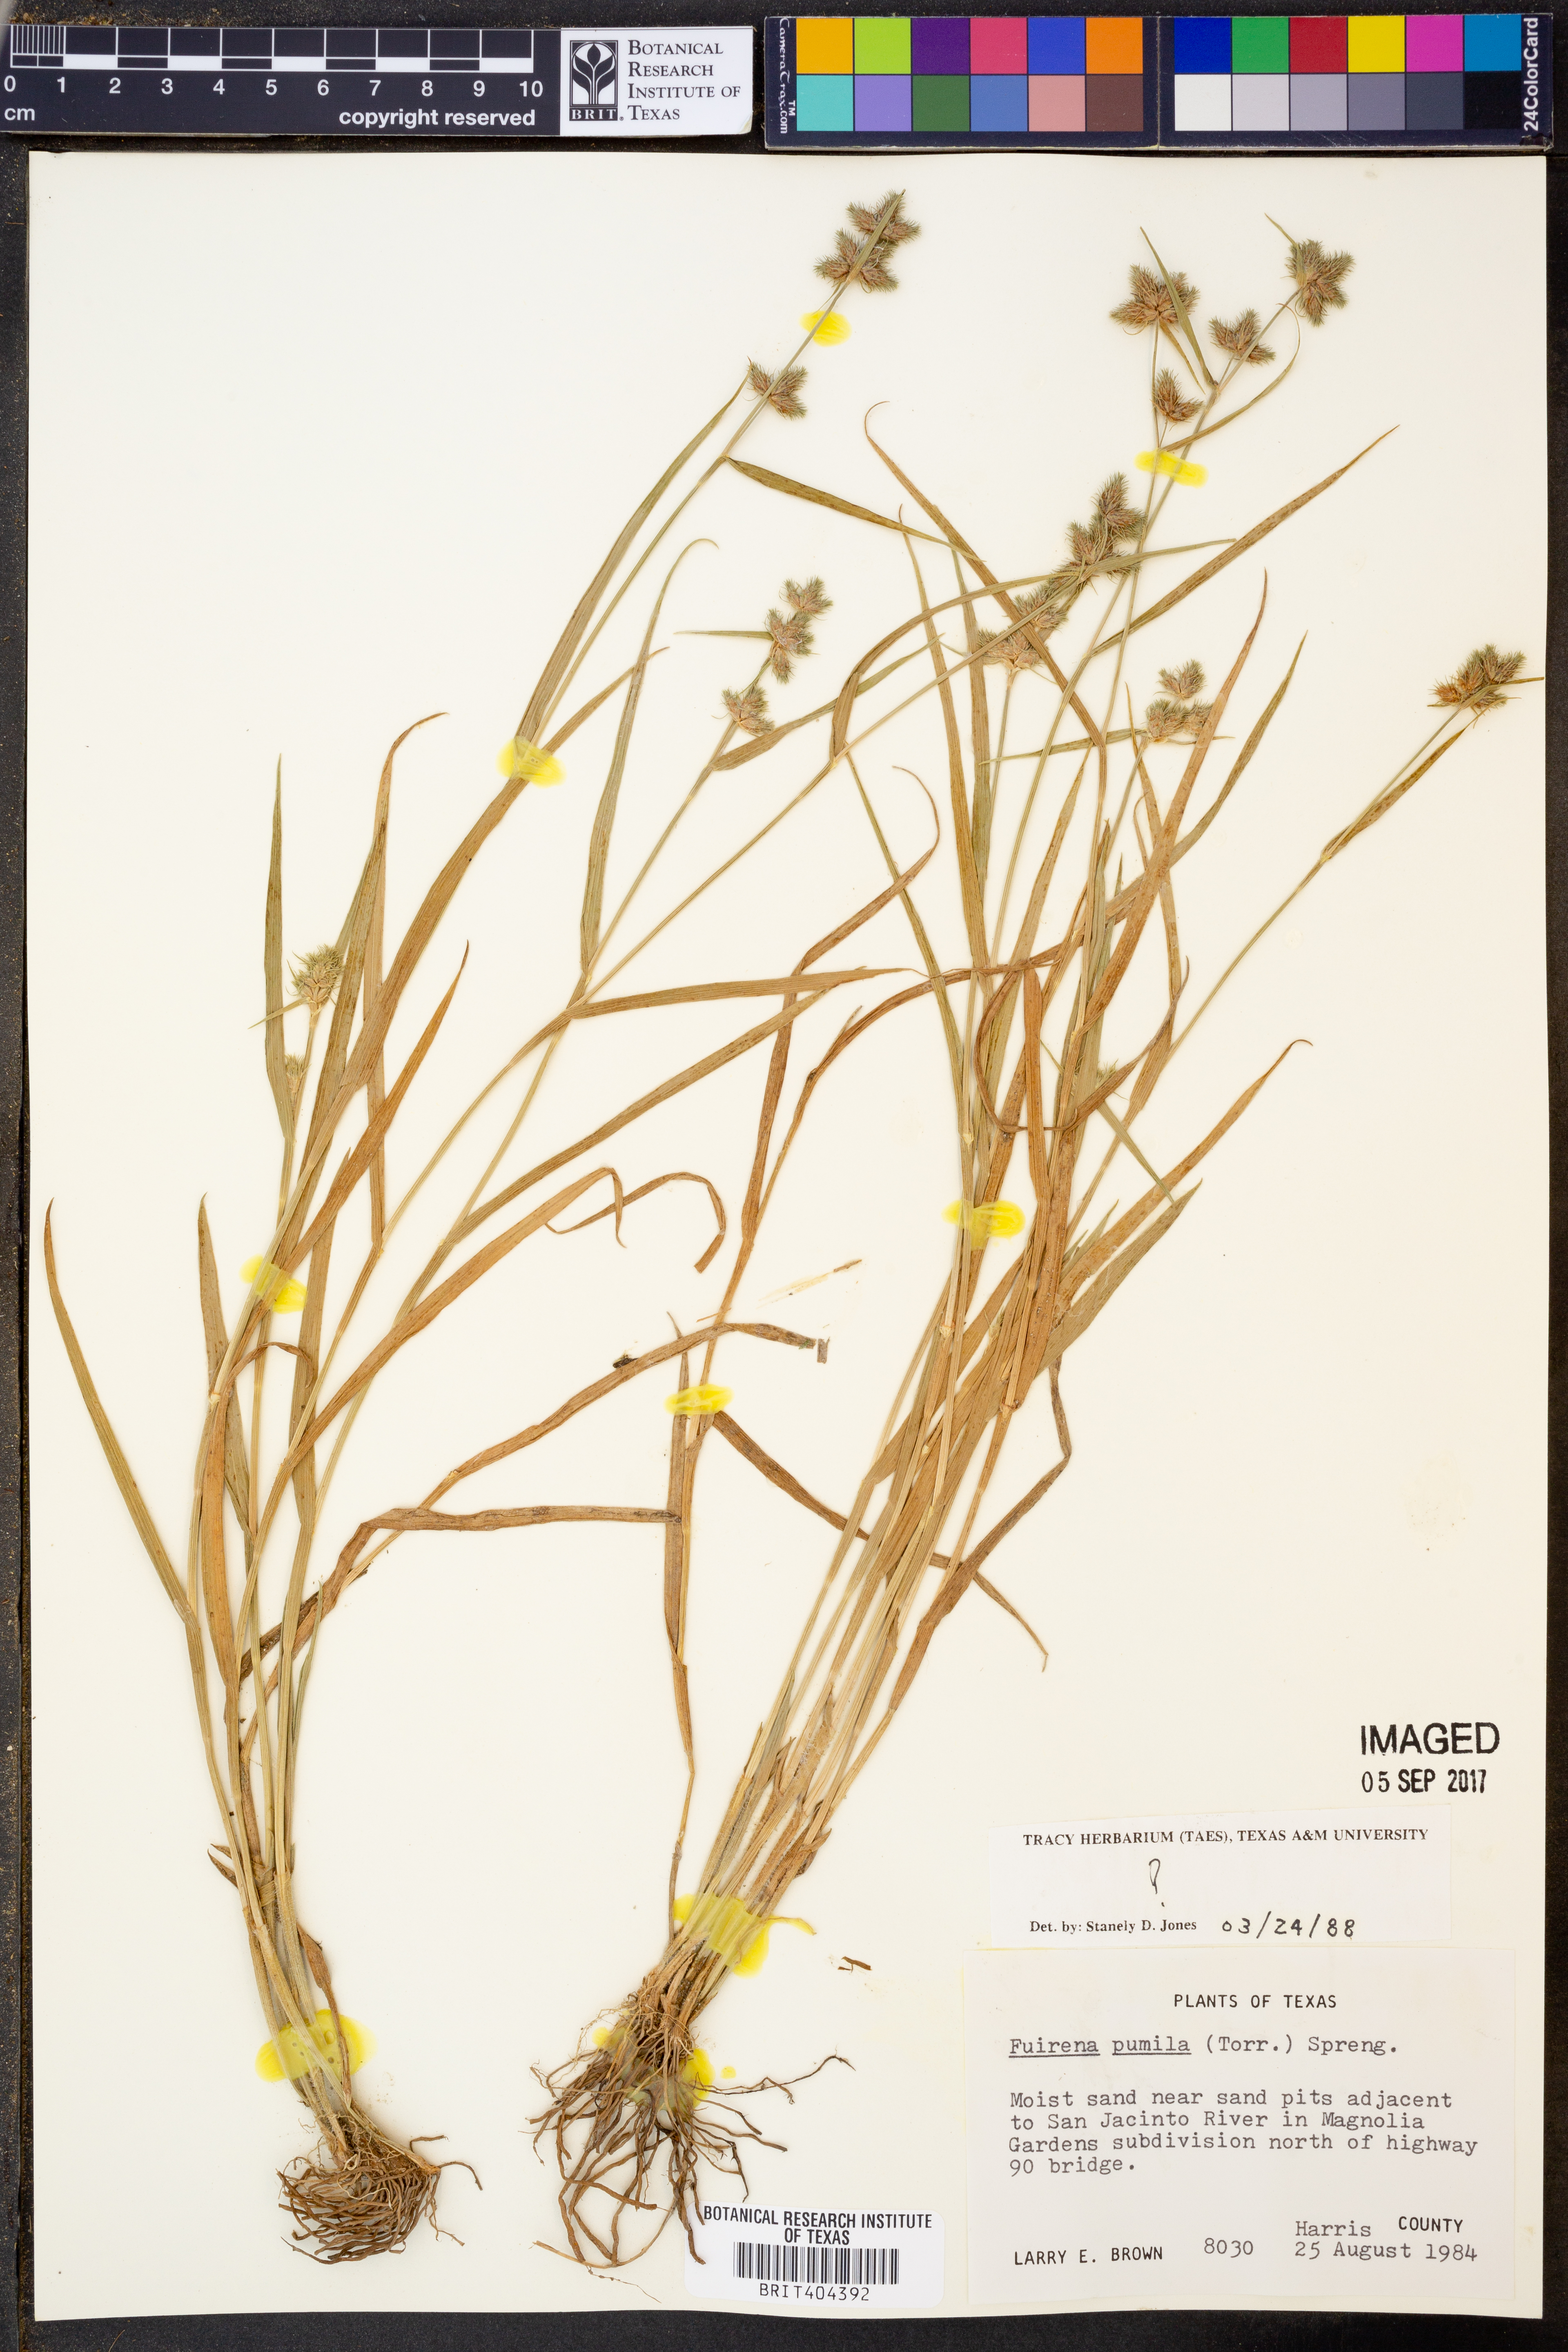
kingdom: Plantae
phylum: Tracheophyta
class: Liliopsida
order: Poales
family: Cyperaceae
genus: Fuirena
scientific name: Fuirena pumila
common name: Dwarf umbrella sedge
